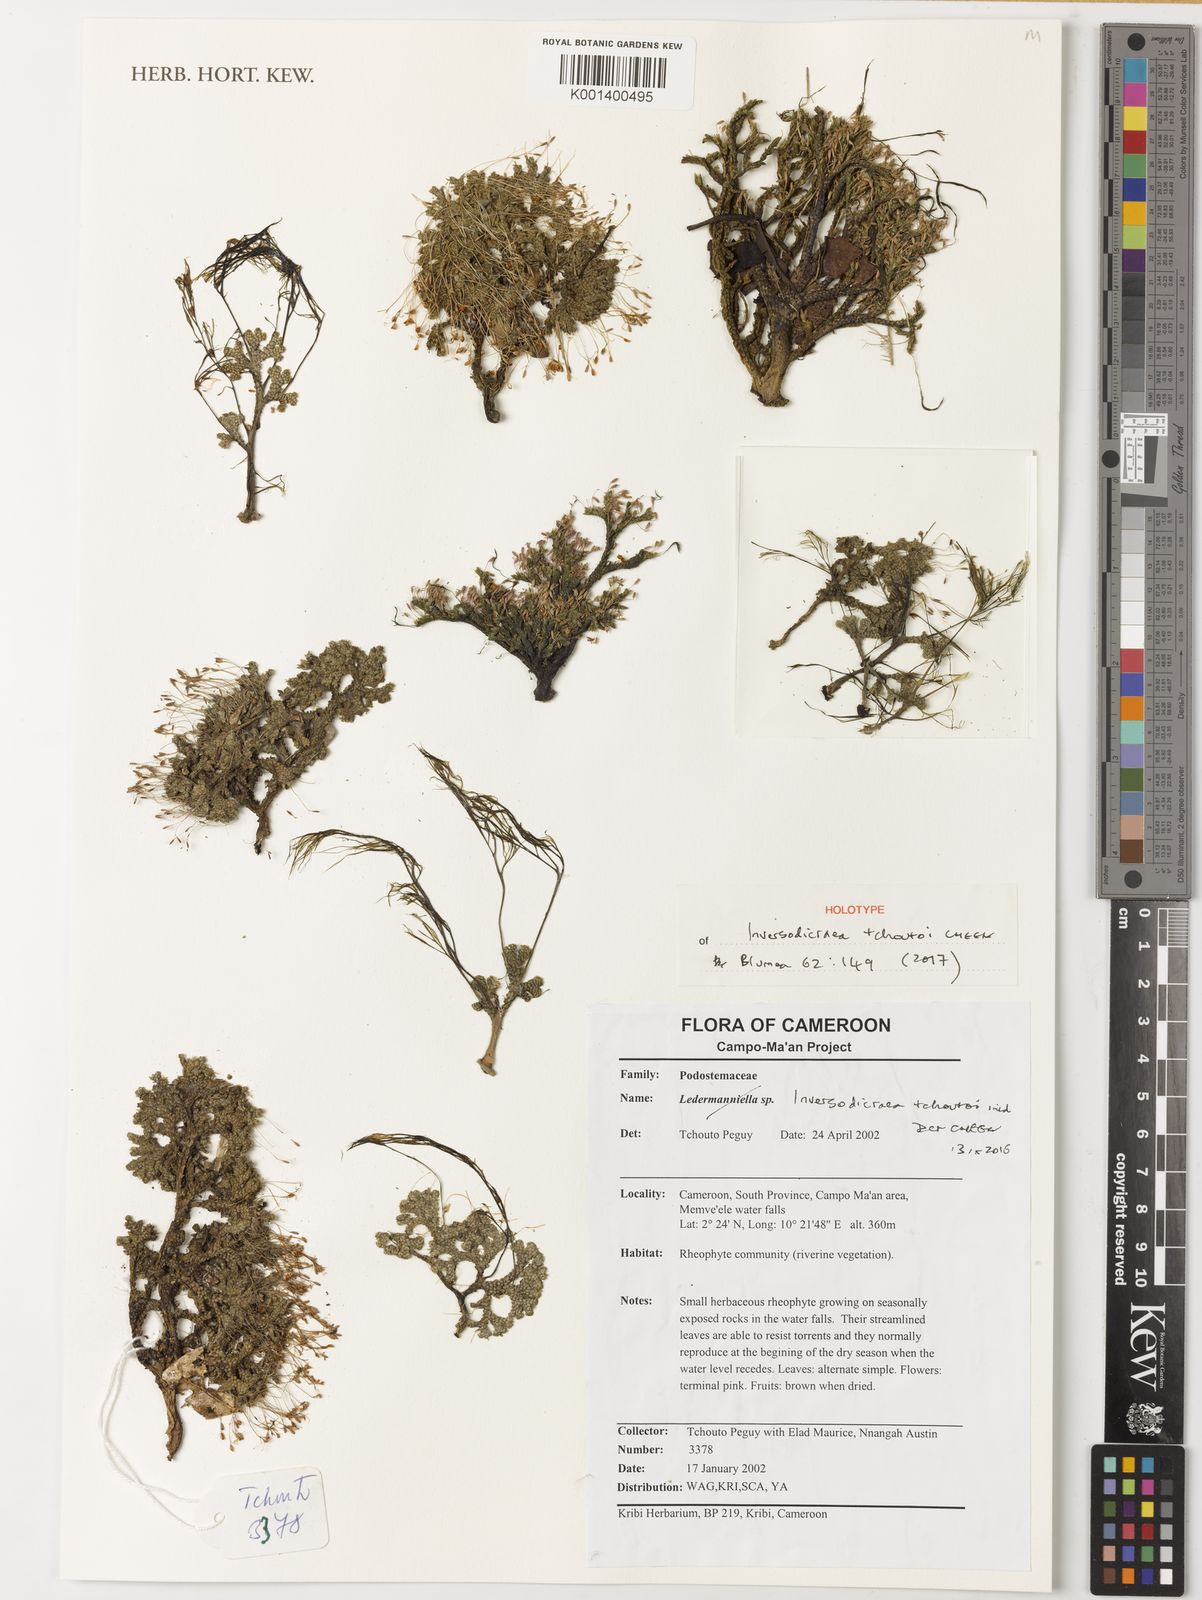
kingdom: Plantae
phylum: Tracheophyta
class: Magnoliopsida
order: Malpighiales
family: Podostemaceae
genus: Inversodicraea
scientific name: Inversodicraea tchoutoi
